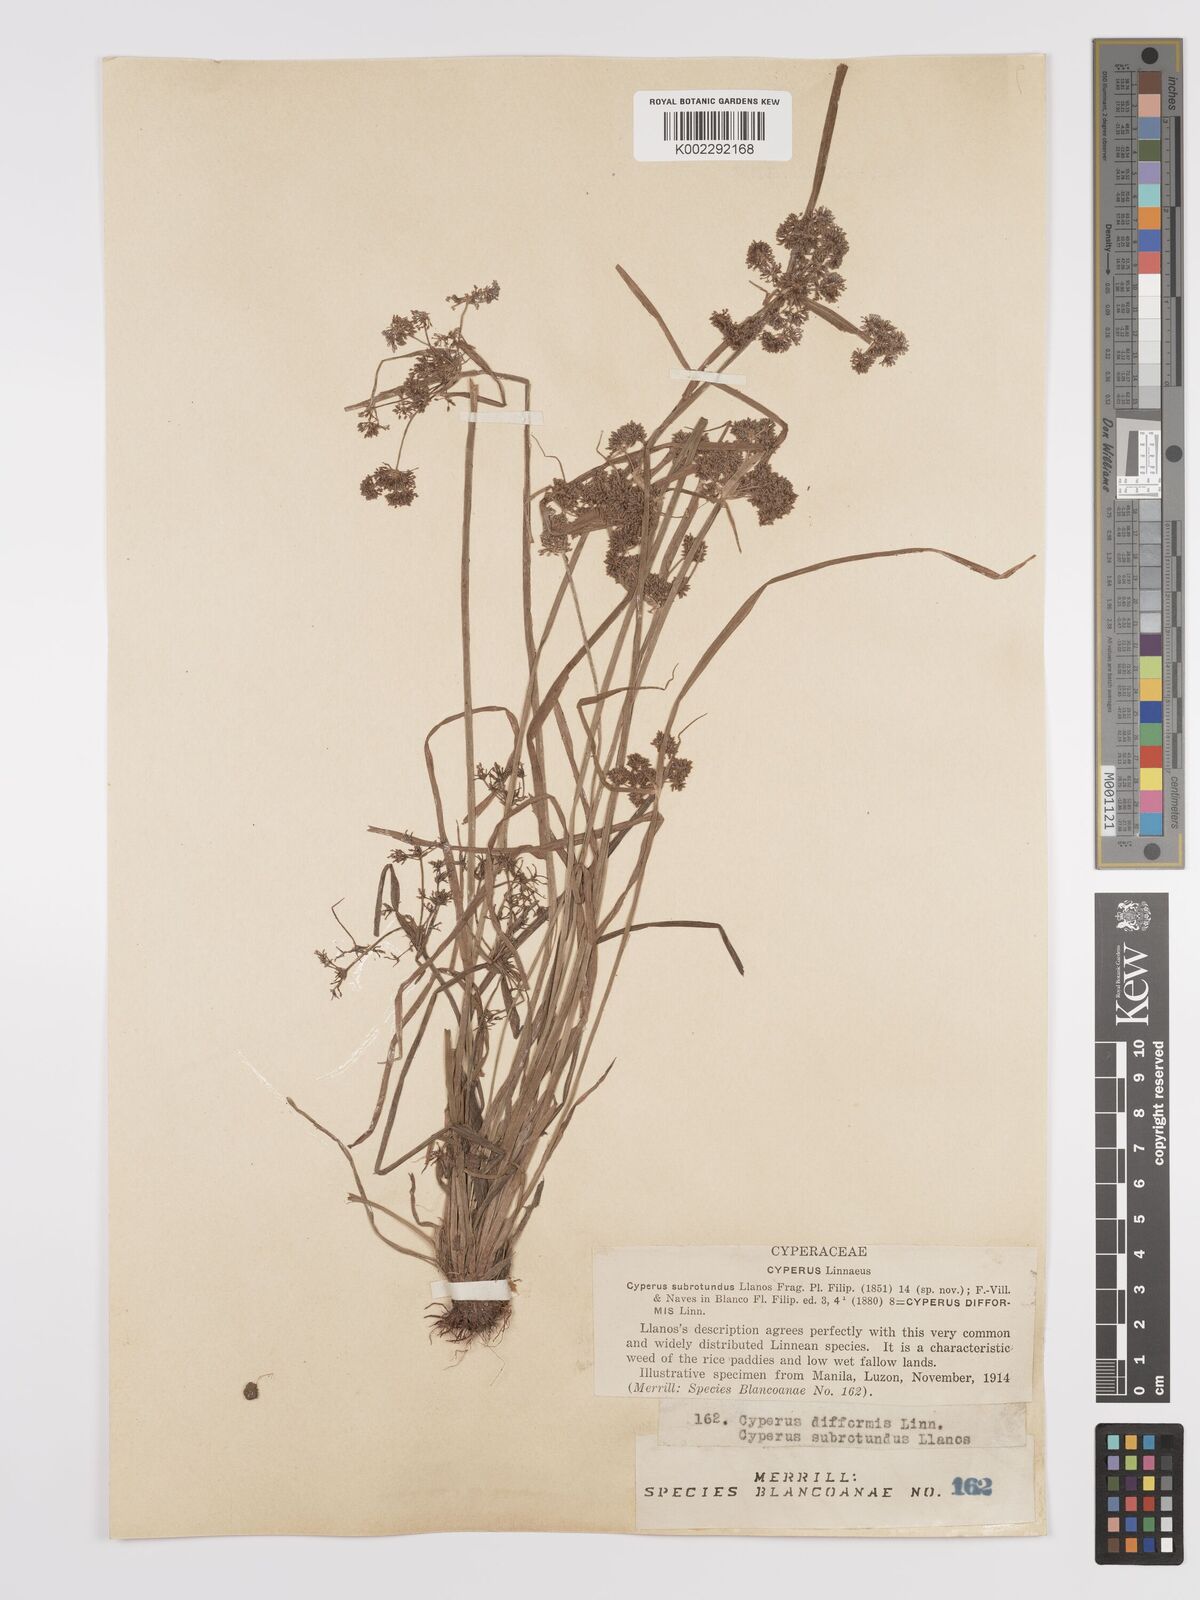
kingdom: Plantae
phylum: Tracheophyta
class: Liliopsida
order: Poales
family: Cyperaceae
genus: Cyperus
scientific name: Cyperus difformis
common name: Variable flatsedge
